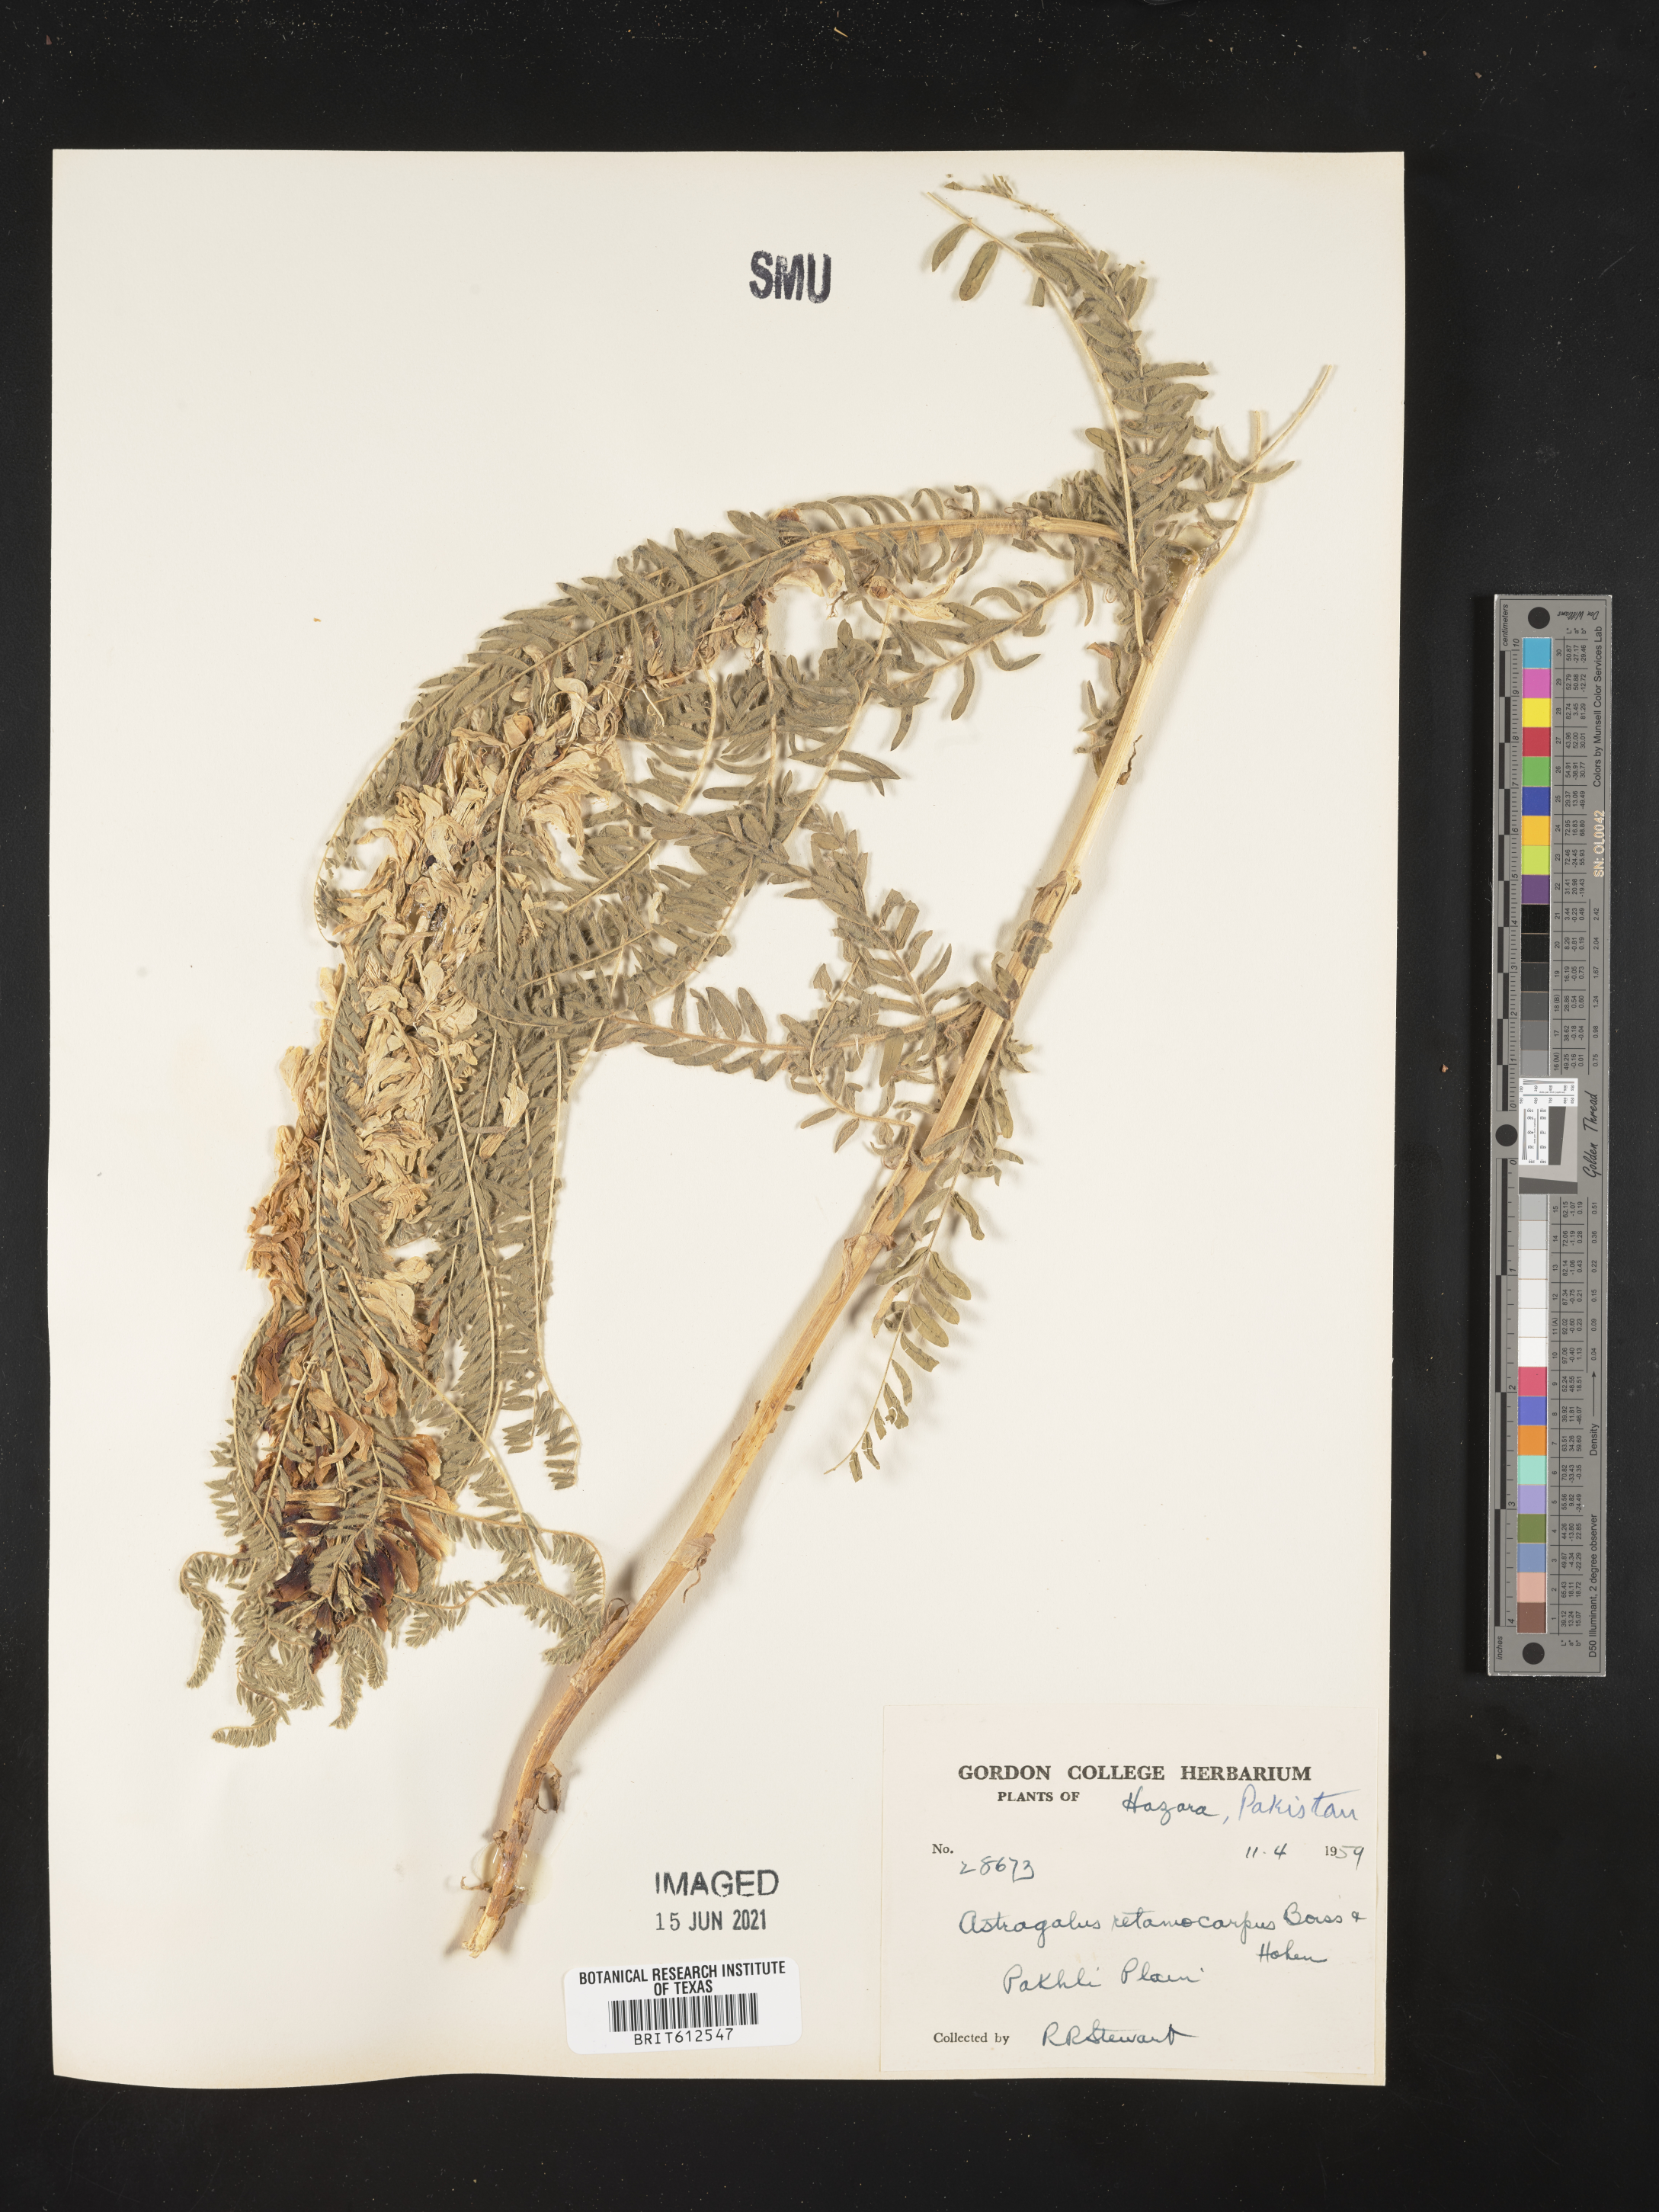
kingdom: Plantae
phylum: Tracheophyta
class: Magnoliopsida
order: Fabales
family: Fabaceae
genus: Astragalus
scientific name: Astragalus retamocarpus
